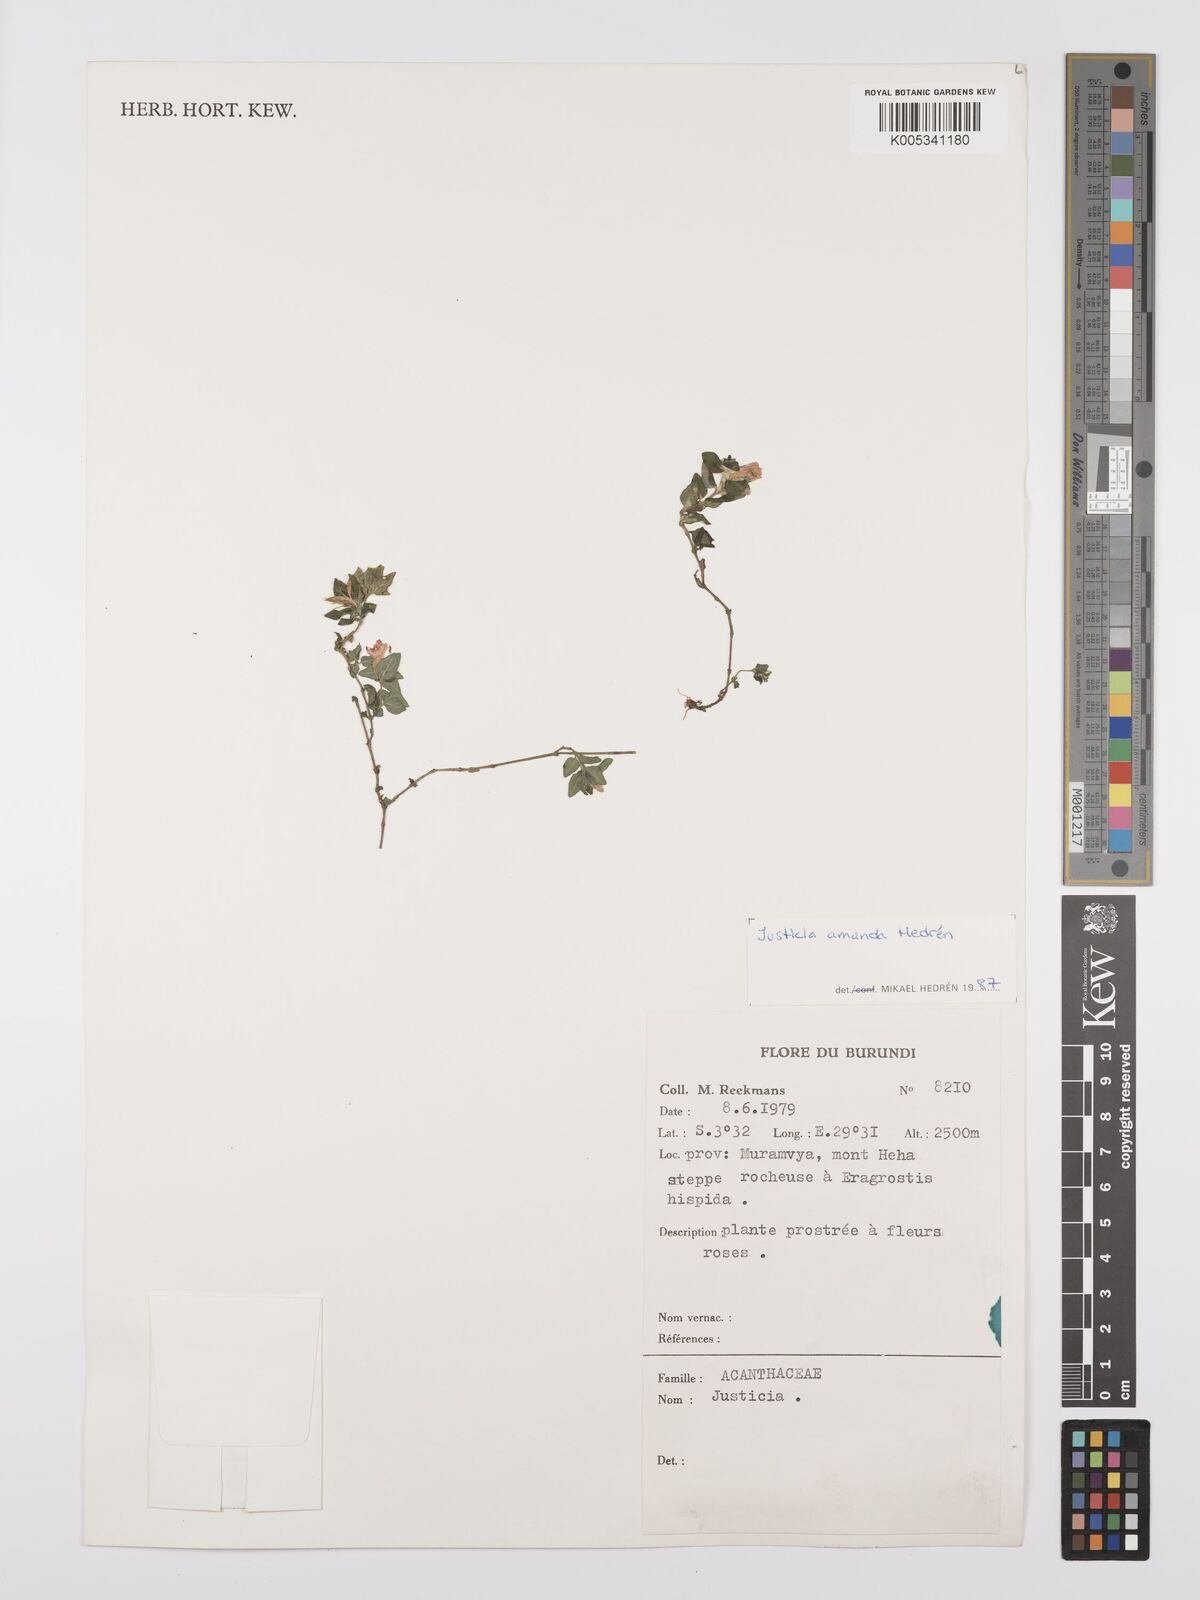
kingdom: Plantae
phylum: Tracheophyta
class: Magnoliopsida
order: Lamiales
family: Acanthaceae
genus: Justicia
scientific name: Justicia amanda
